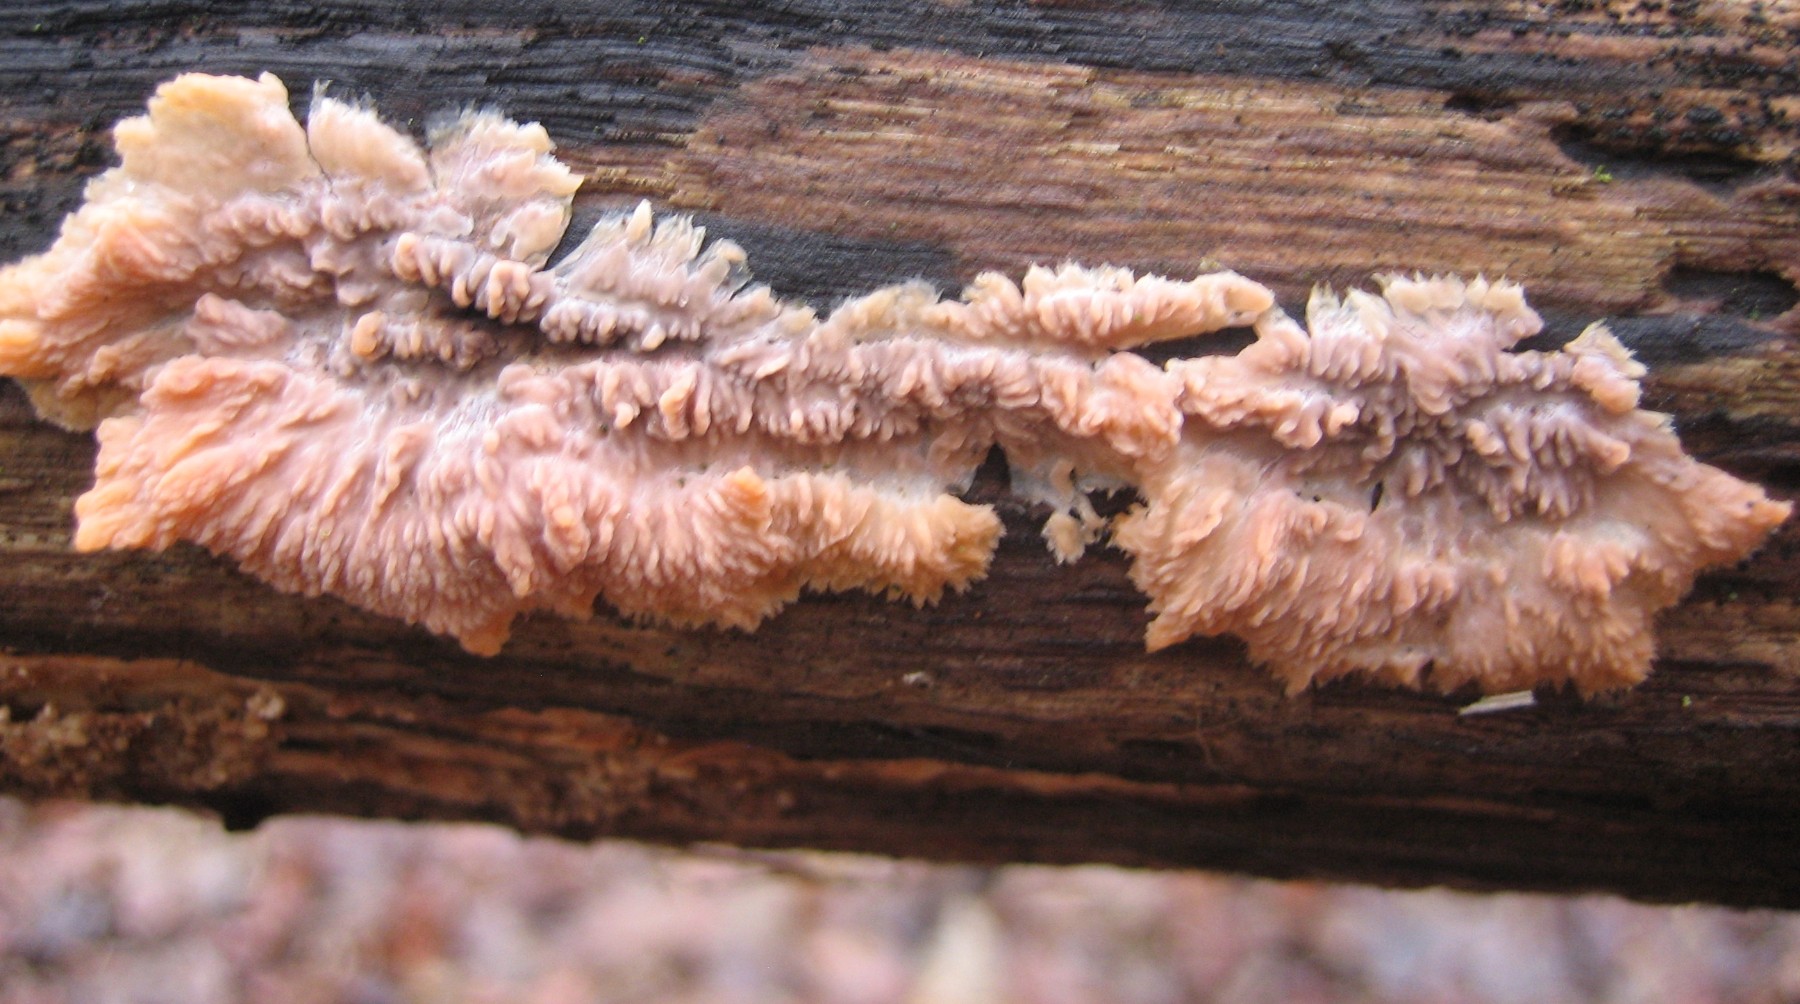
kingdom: Fungi
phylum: Basidiomycota
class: Agaricomycetes
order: Polyporales
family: Meruliaceae
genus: Phlebia
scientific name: Phlebia radiata
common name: stråle-åresvamp
